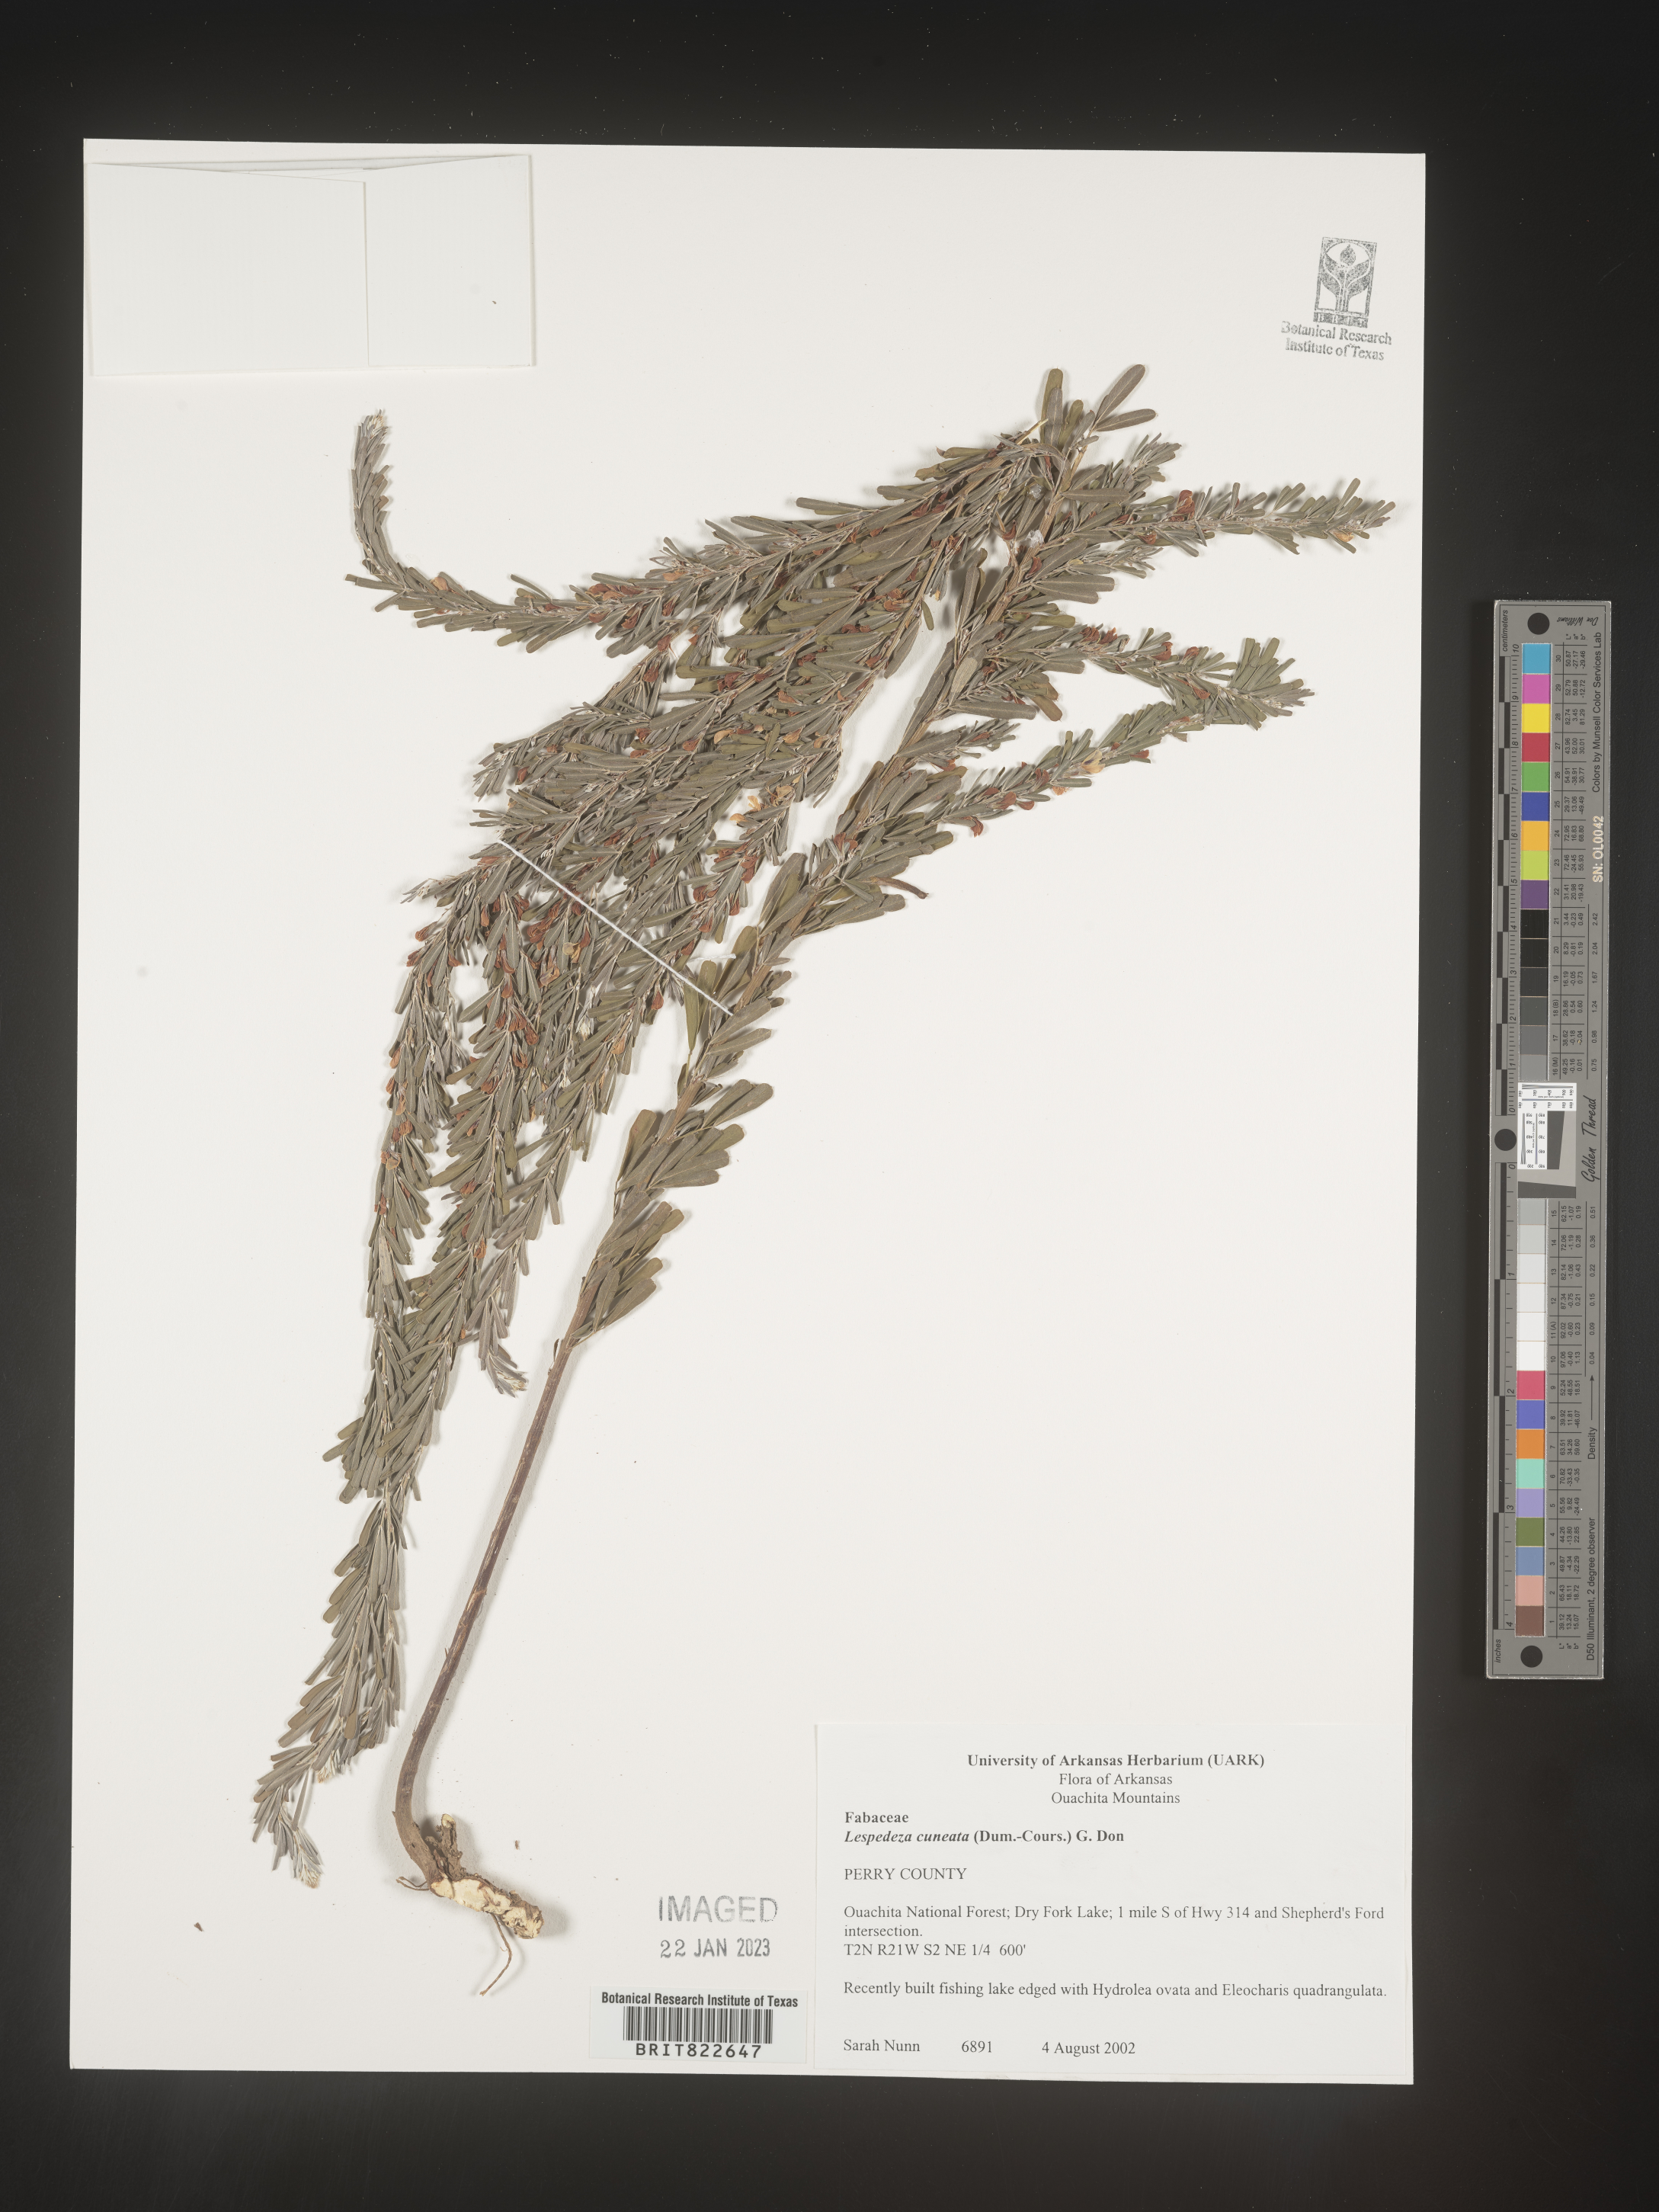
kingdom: Plantae
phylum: Tracheophyta
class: Magnoliopsida
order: Fabales
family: Fabaceae
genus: Lespedeza
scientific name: Lespedeza cuneata
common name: Chinese bush-clover
